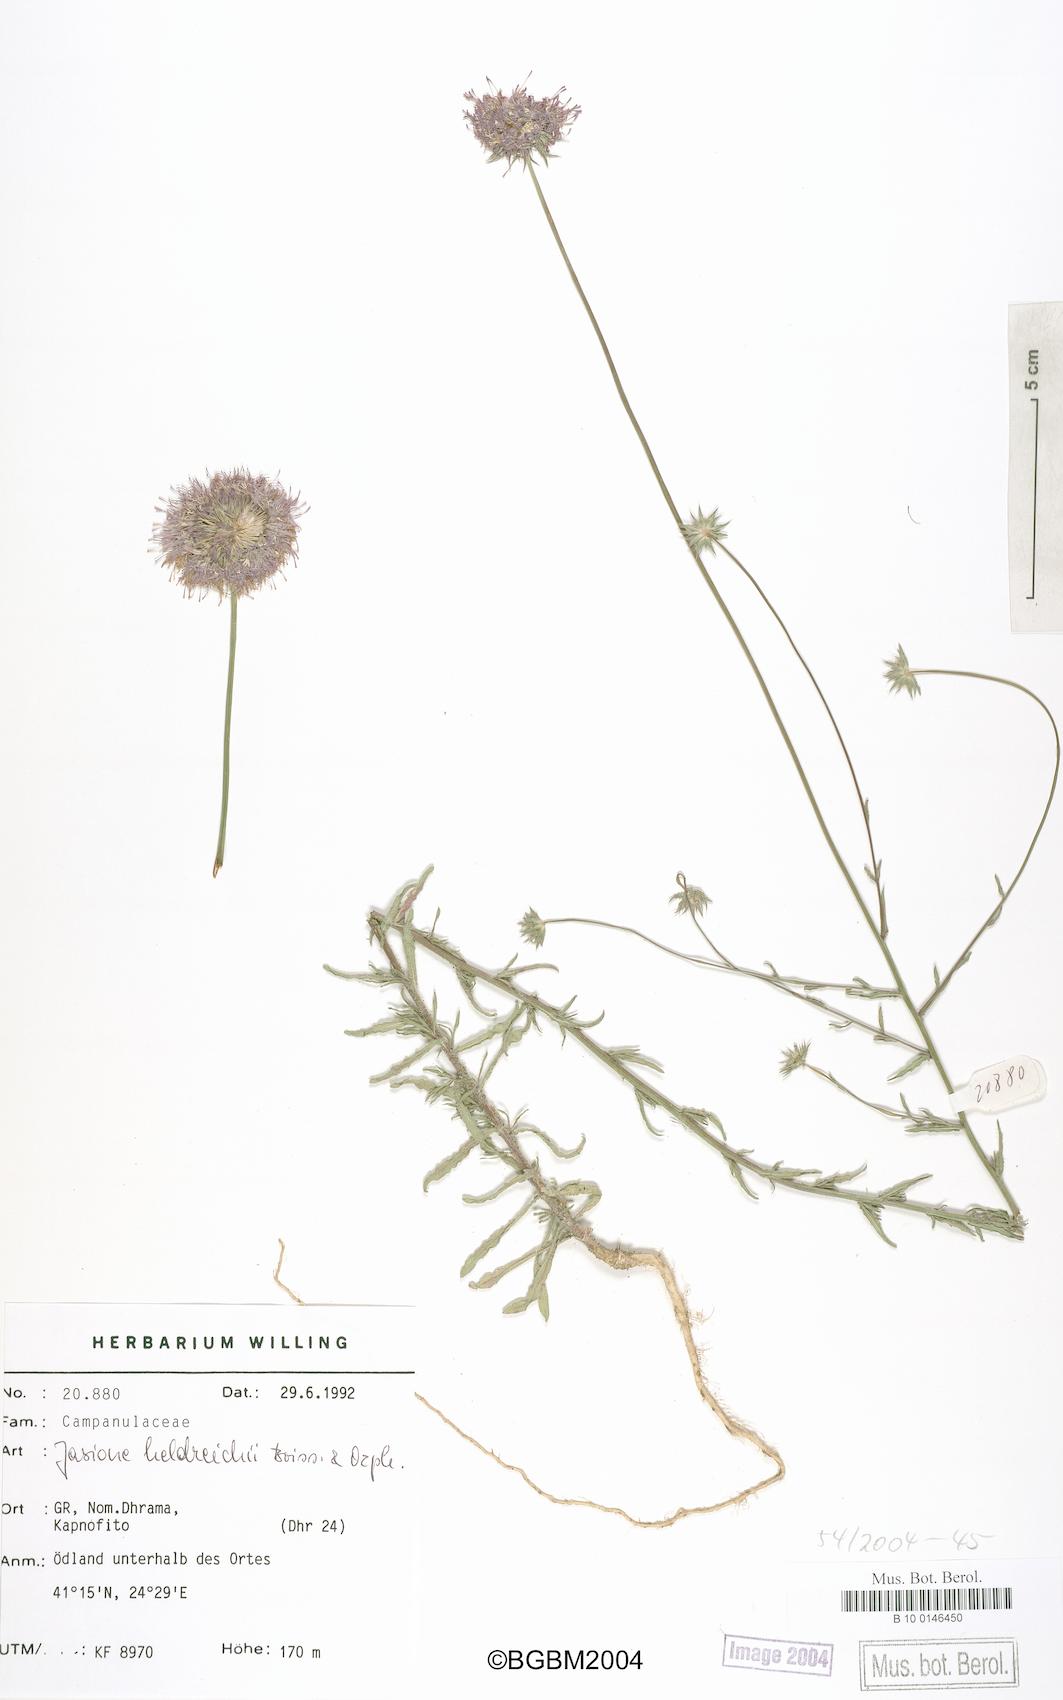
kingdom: Plantae
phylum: Tracheophyta
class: Magnoliopsida
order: Asterales
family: Campanulaceae
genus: Jasione
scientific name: Jasione heldreichii
